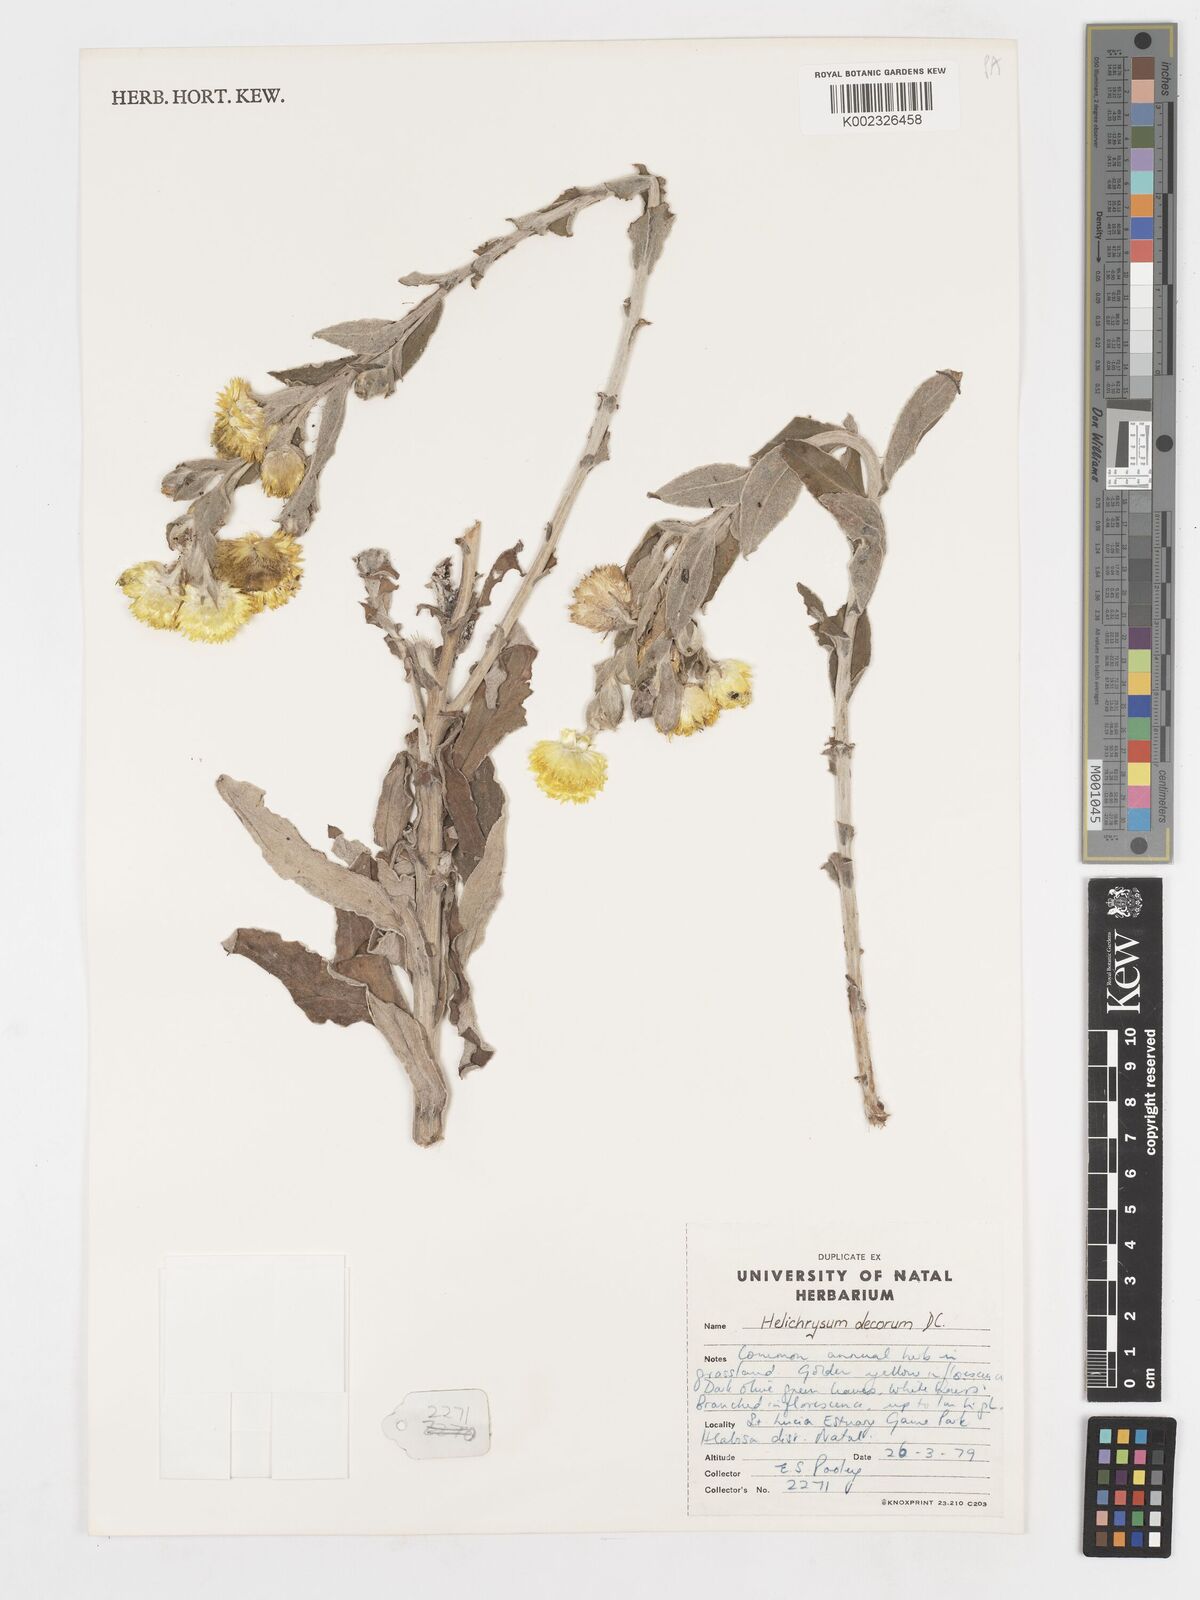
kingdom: Plantae
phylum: Tracheophyta
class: Magnoliopsida
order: Asterales
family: Asteraceae
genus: Helichrysum
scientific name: Helichrysum decorum
